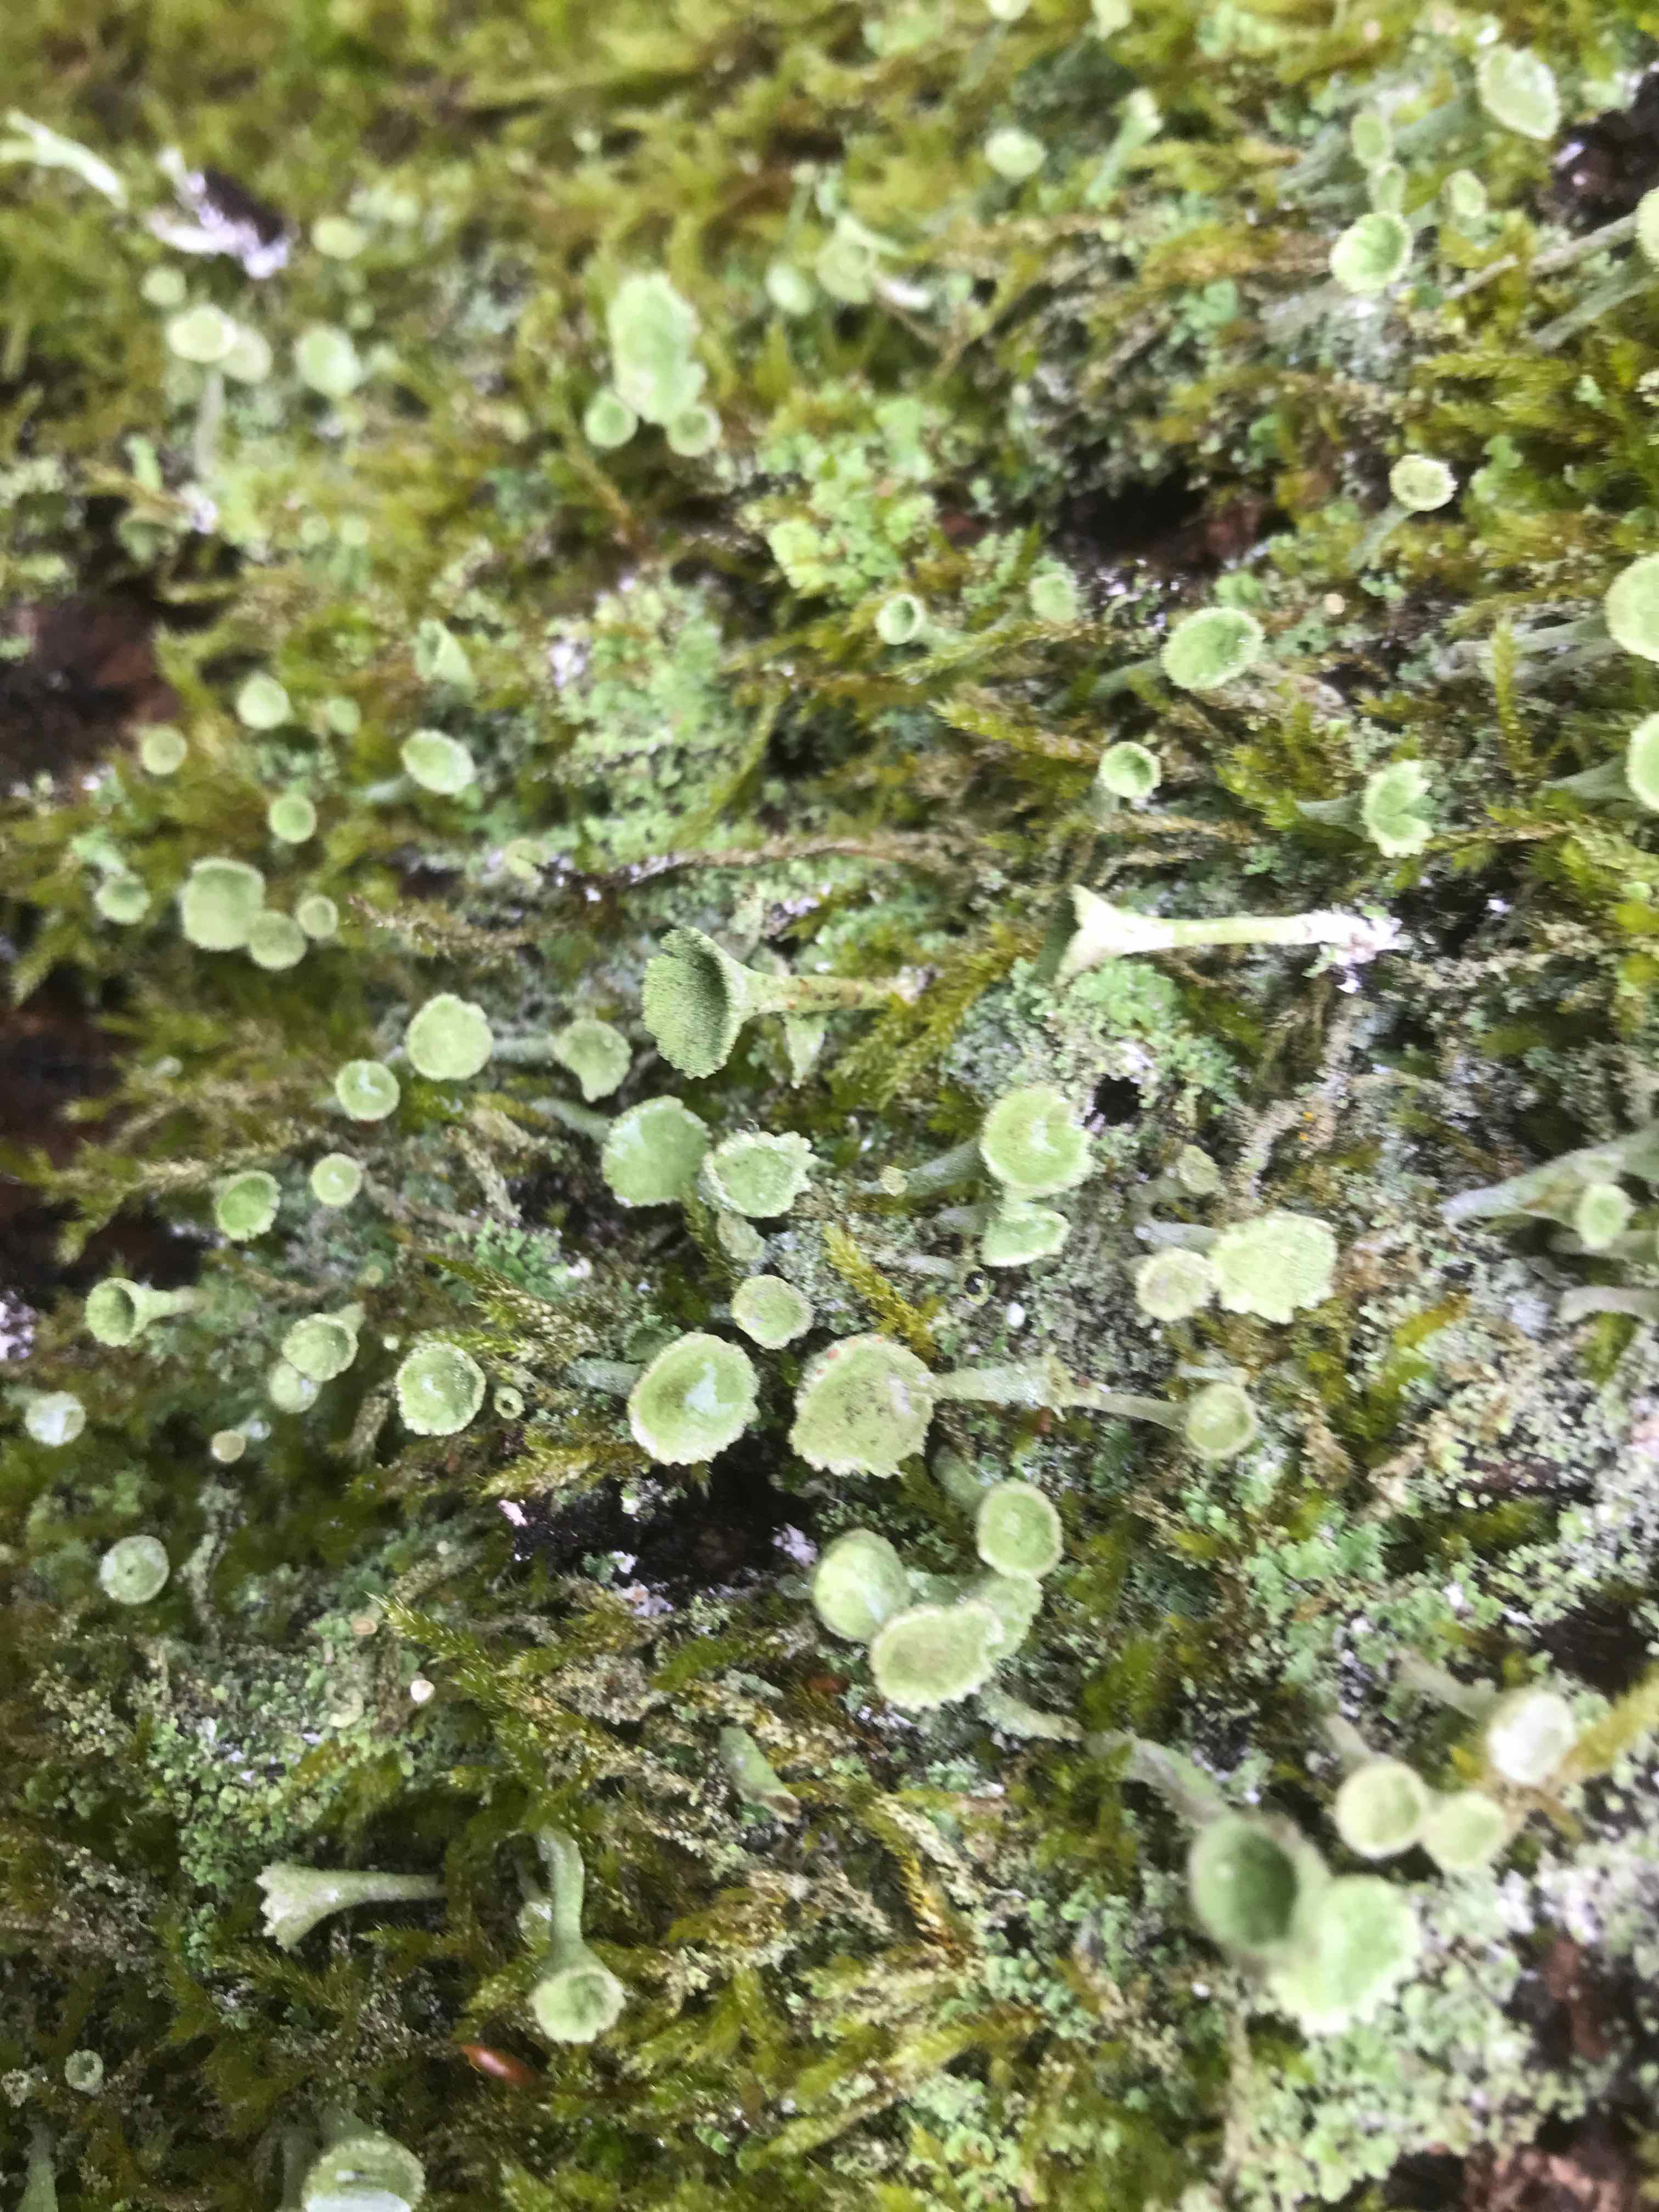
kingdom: Fungi
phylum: Ascomycota
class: Lecanoromycetes
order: Lecanorales
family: Cladoniaceae
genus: Cladonia
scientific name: Cladonia
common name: brungrøn bægerlav
